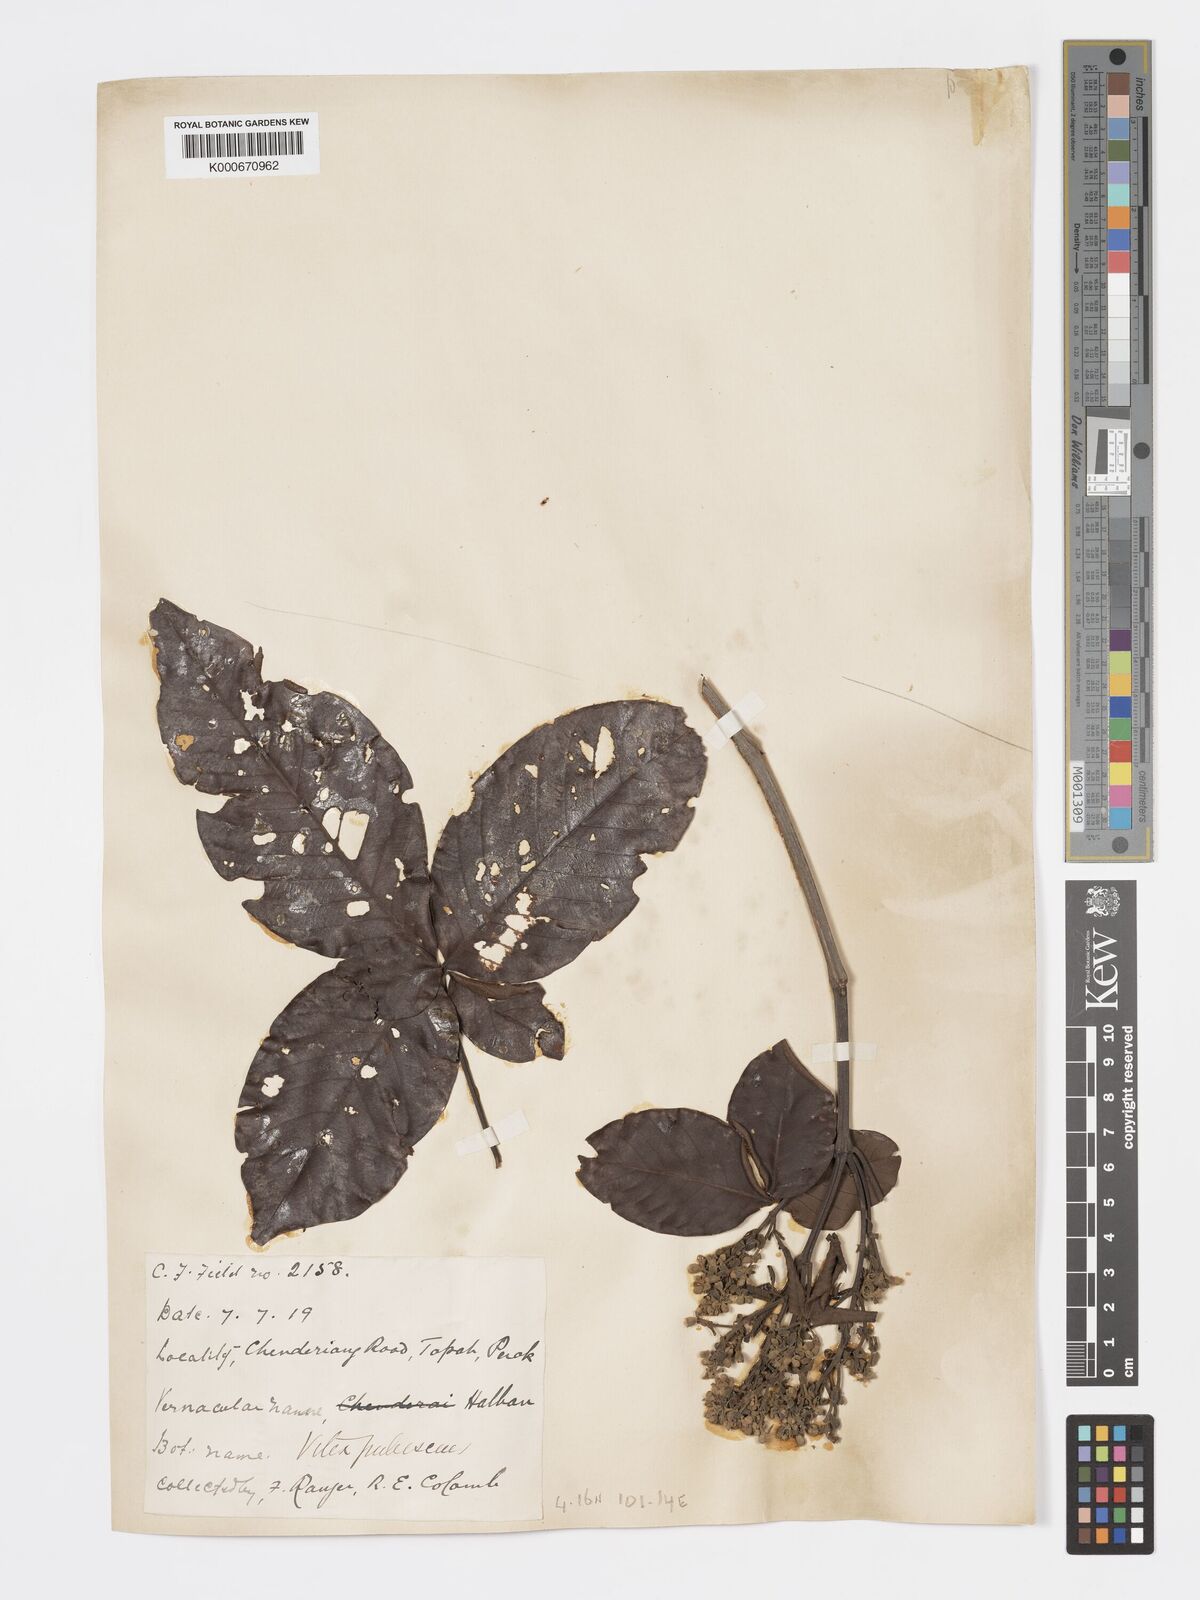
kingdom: Plantae
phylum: Tracheophyta
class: Magnoliopsida
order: Lamiales
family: Lamiaceae
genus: Vitex
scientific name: Vitex pinnata
